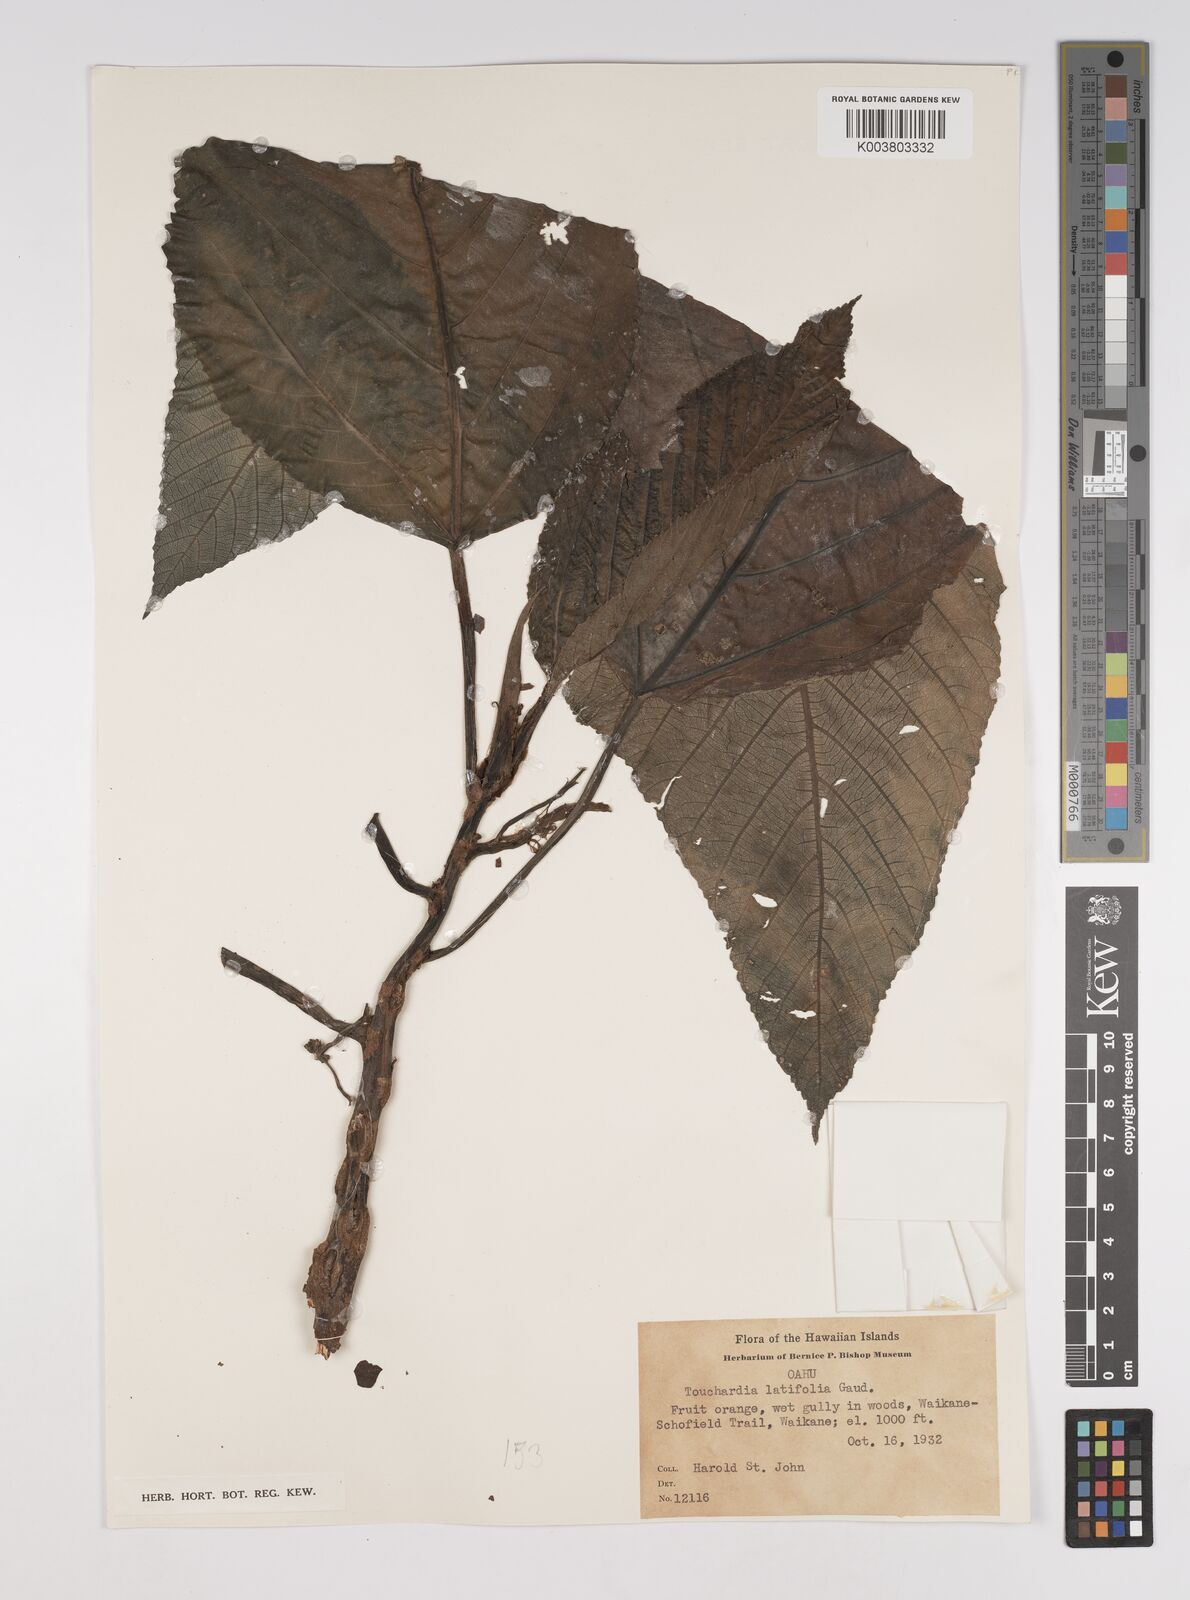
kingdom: Plantae
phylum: Tracheophyta
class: Magnoliopsida
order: Rosales
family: Urticaceae
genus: Touchardia
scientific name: Touchardia latifolia
